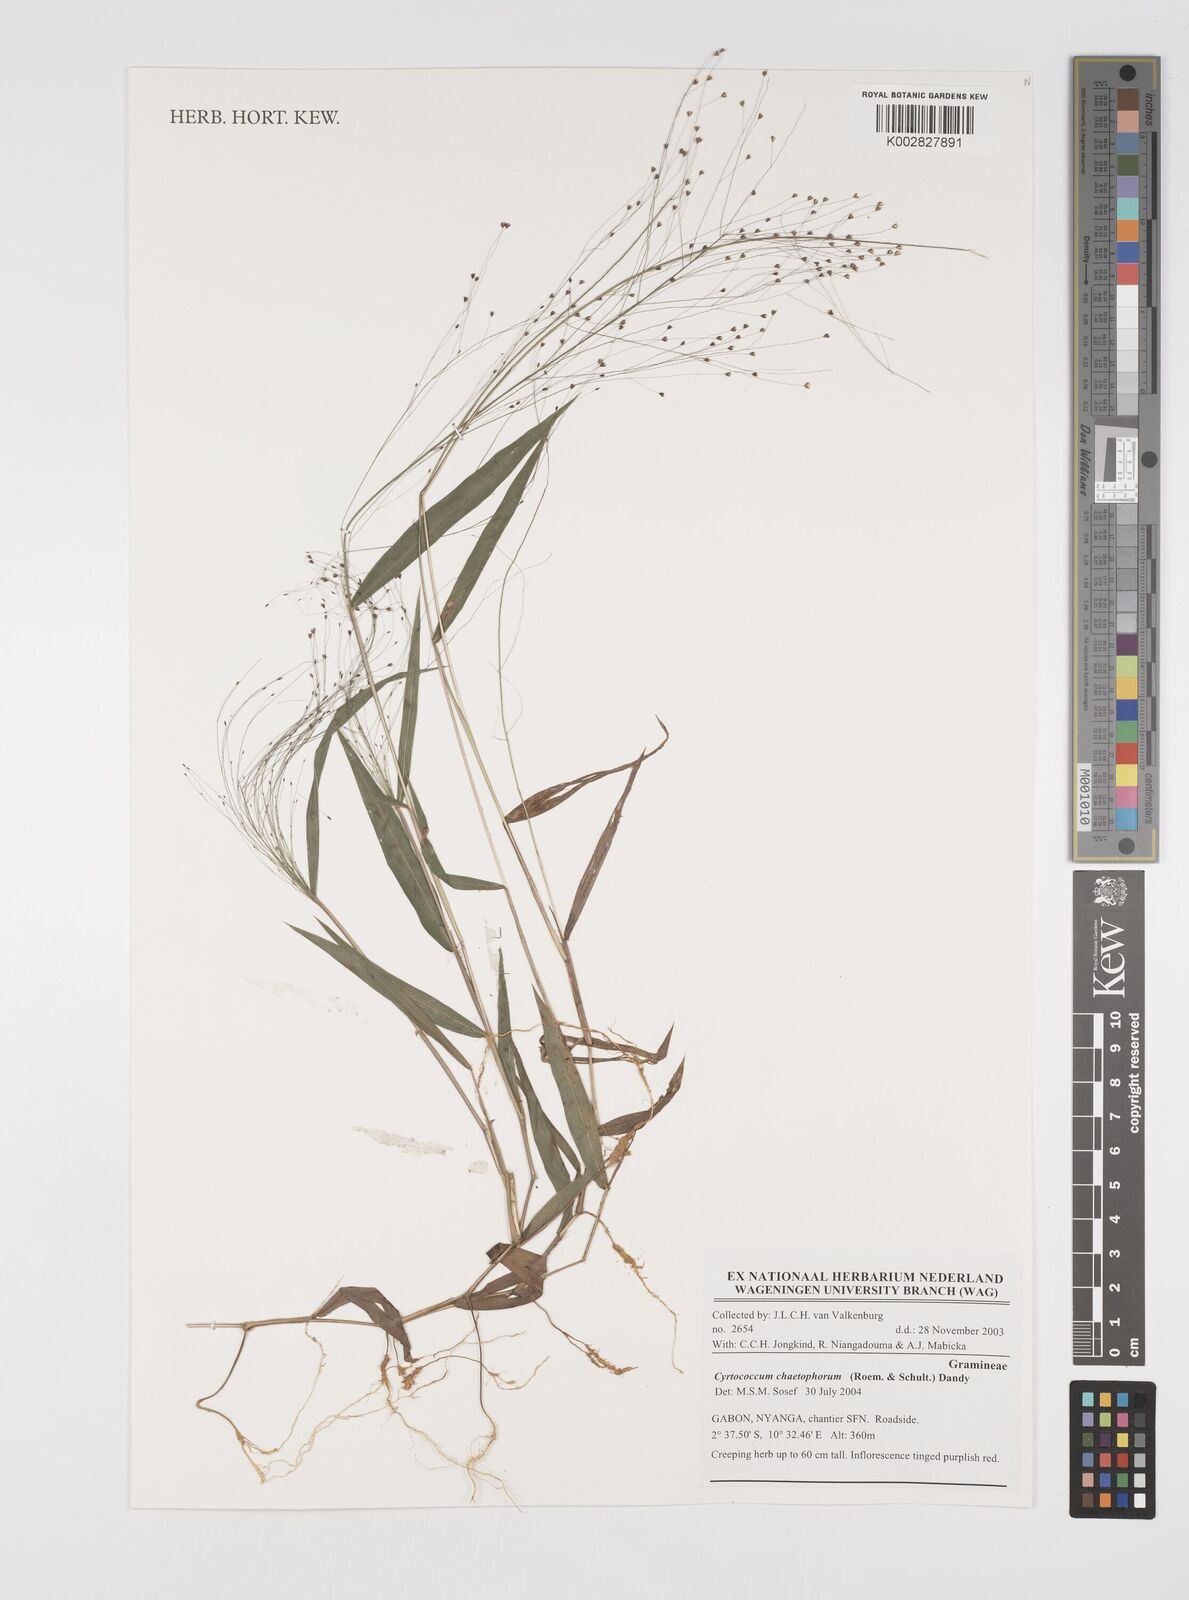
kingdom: Plantae
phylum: Tracheophyta
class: Liliopsida
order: Poales
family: Poaceae
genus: Cyrtococcum
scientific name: Cyrtococcum chaetophoron
